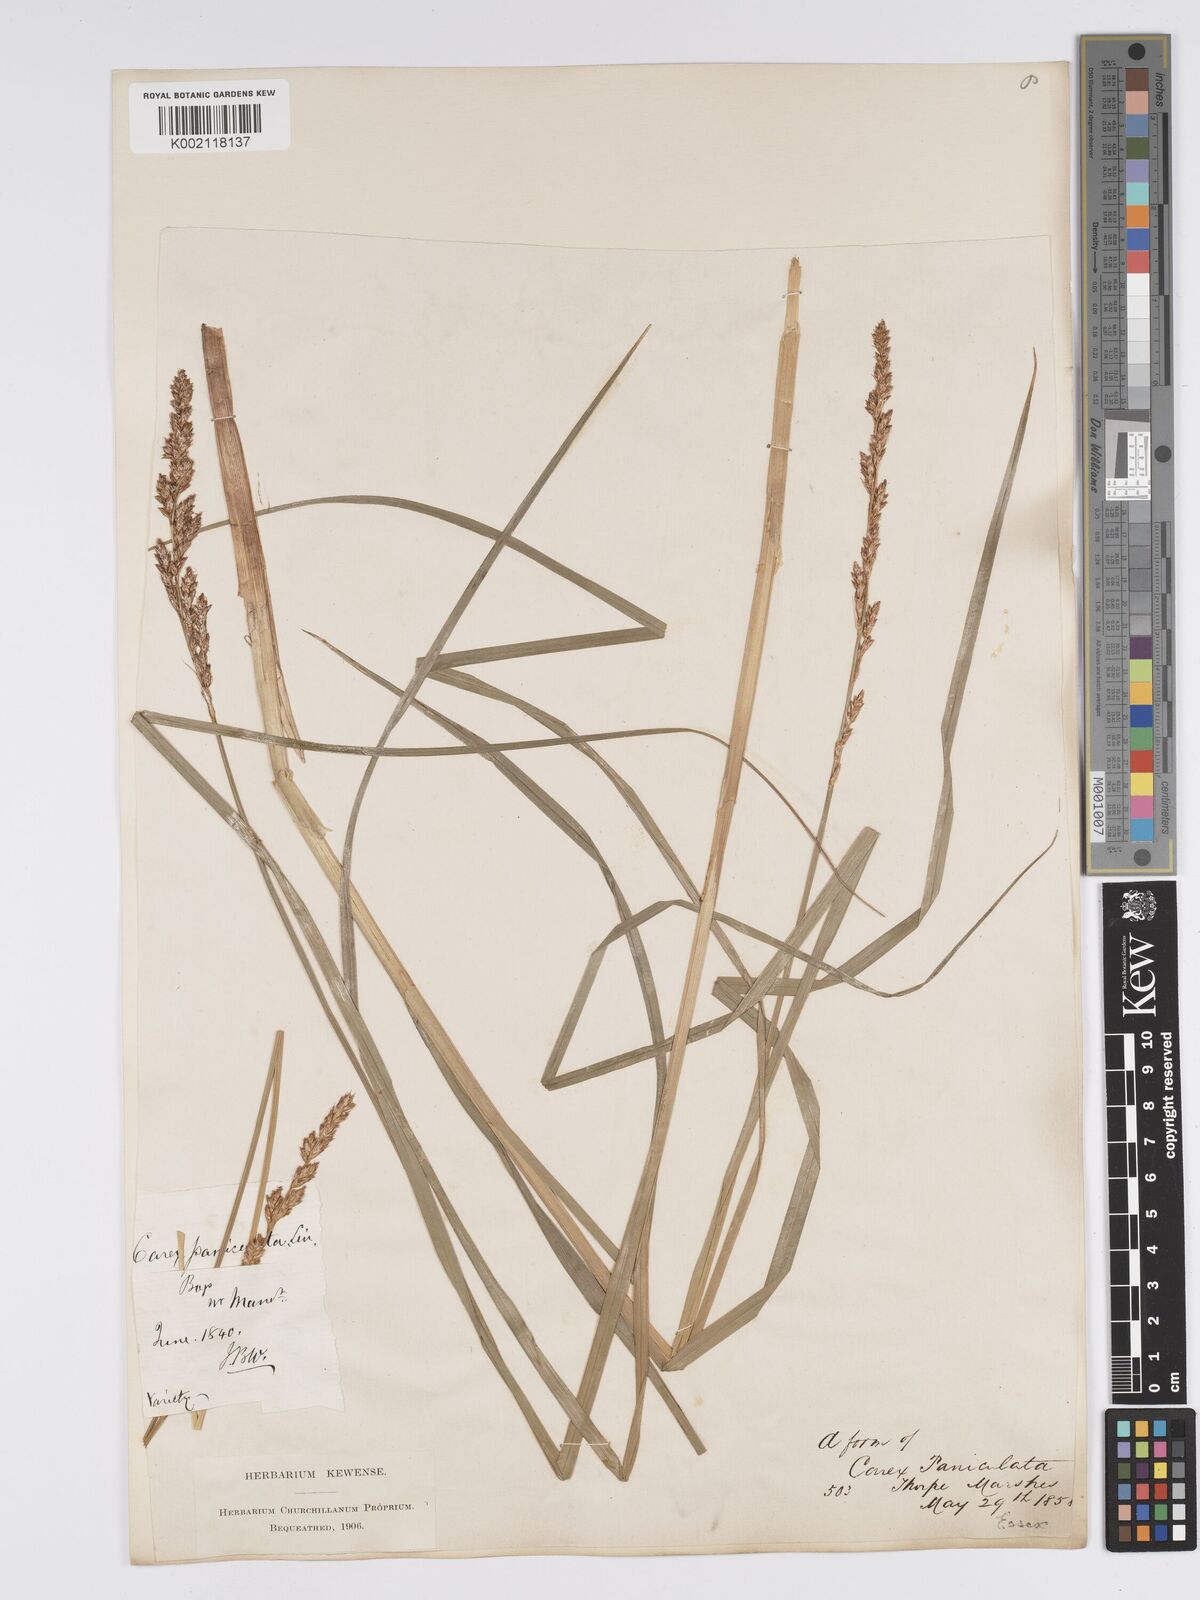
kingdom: Plantae
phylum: Tracheophyta
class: Liliopsida
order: Poales
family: Cyperaceae
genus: Carex
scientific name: Carex paniculata
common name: Greater tussock-sedge
